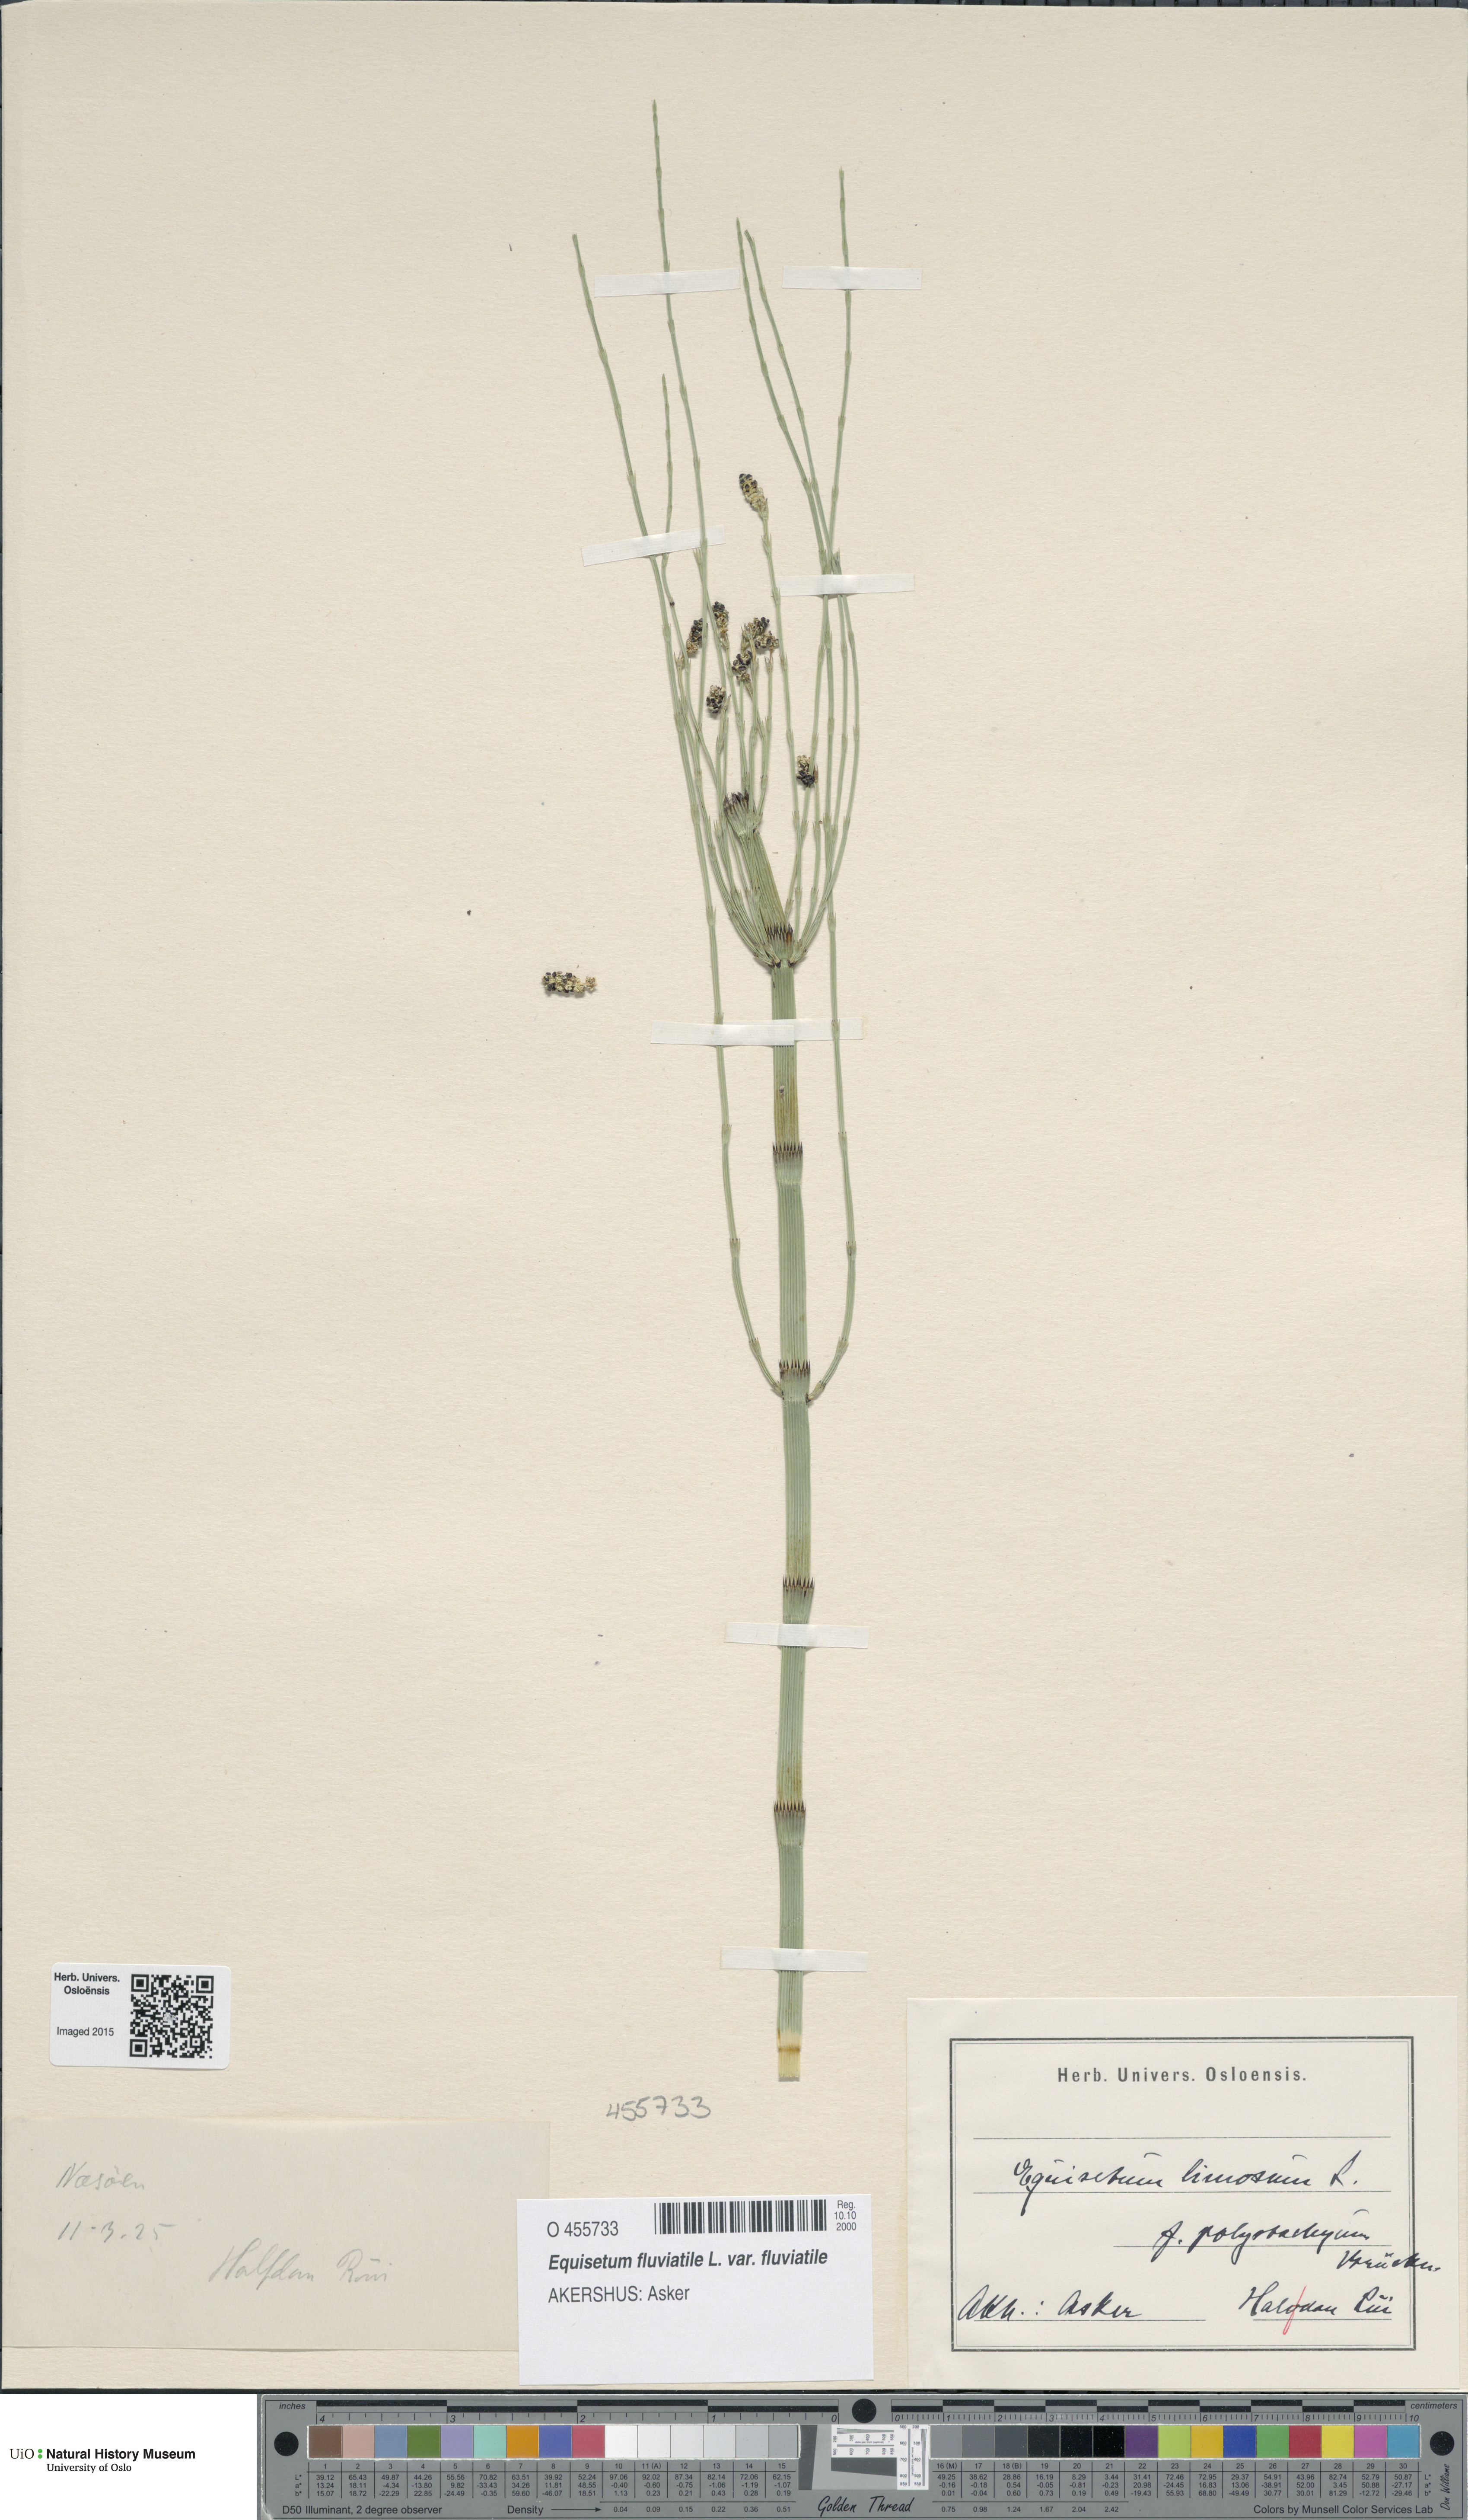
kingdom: Plantae
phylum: Tracheophyta
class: Polypodiopsida
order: Equisetales
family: Equisetaceae
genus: Equisetum
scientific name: Equisetum fluviatile
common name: Water horsetail
